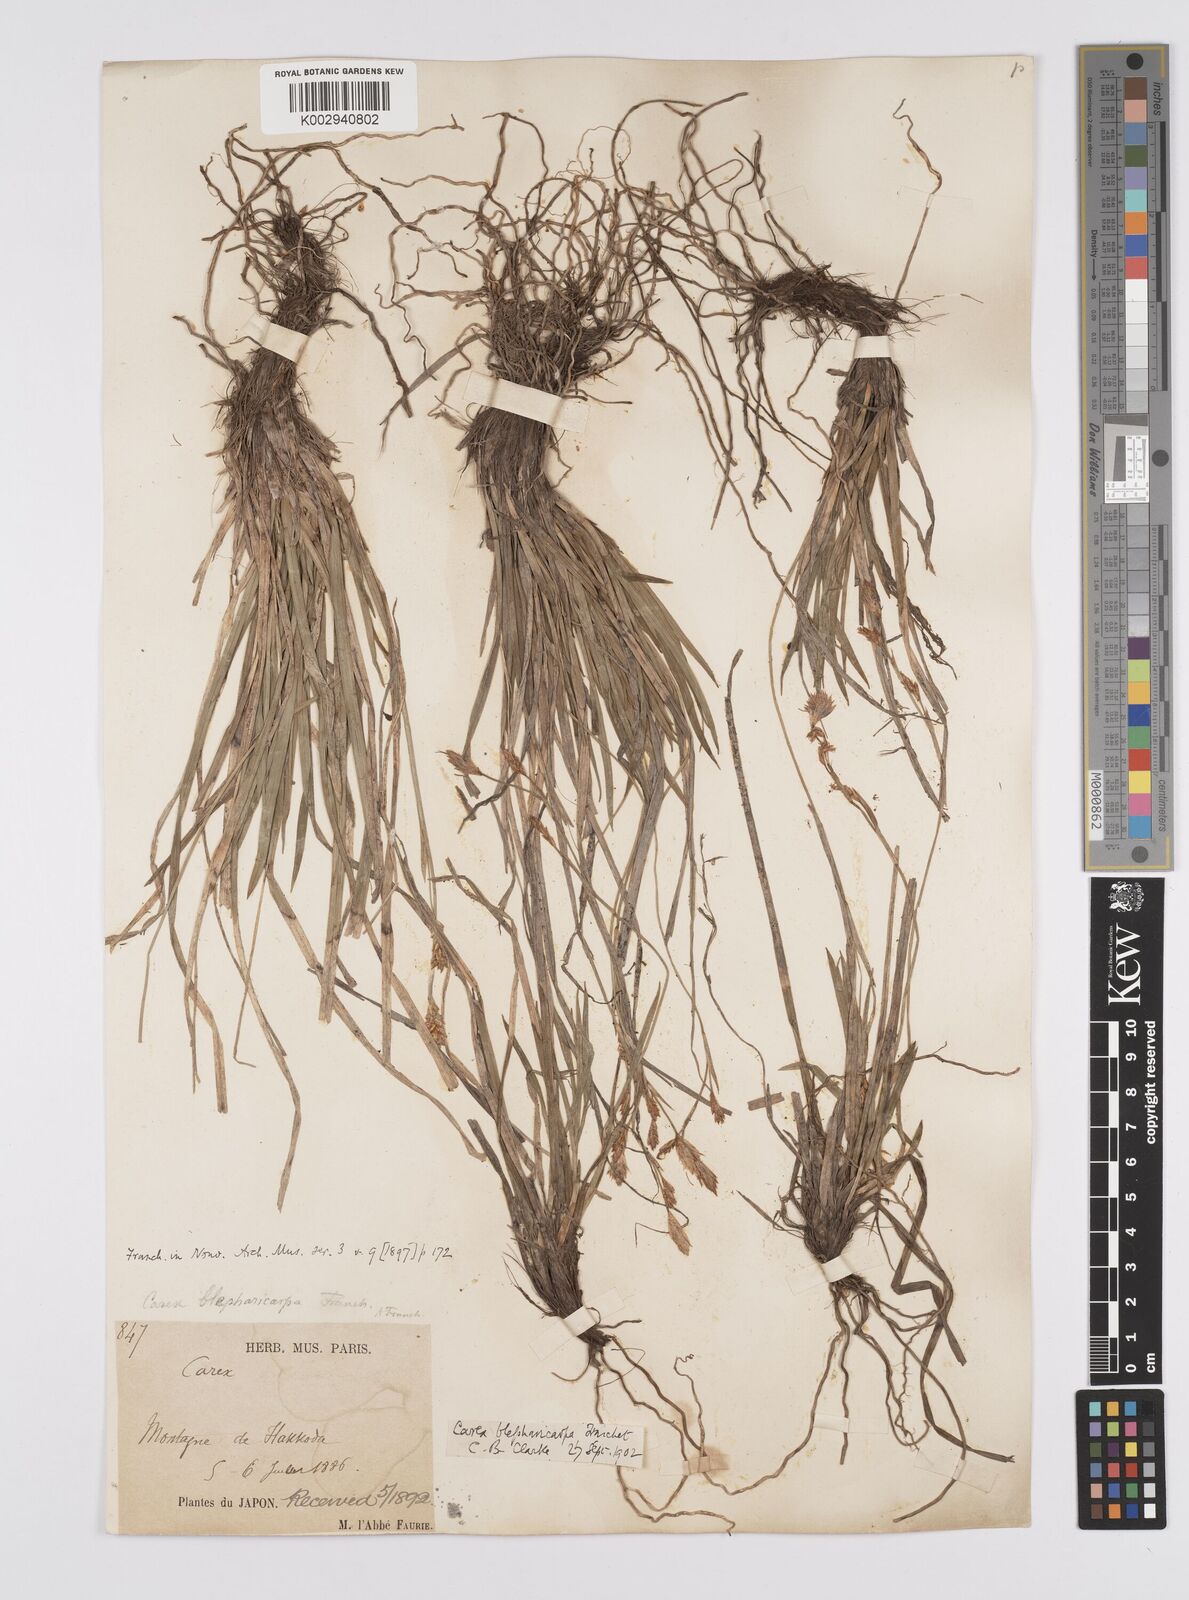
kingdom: Plantae
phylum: Tracheophyta
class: Liliopsida
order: Poales
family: Cyperaceae
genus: Carex
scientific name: Carex blepharicarpa
